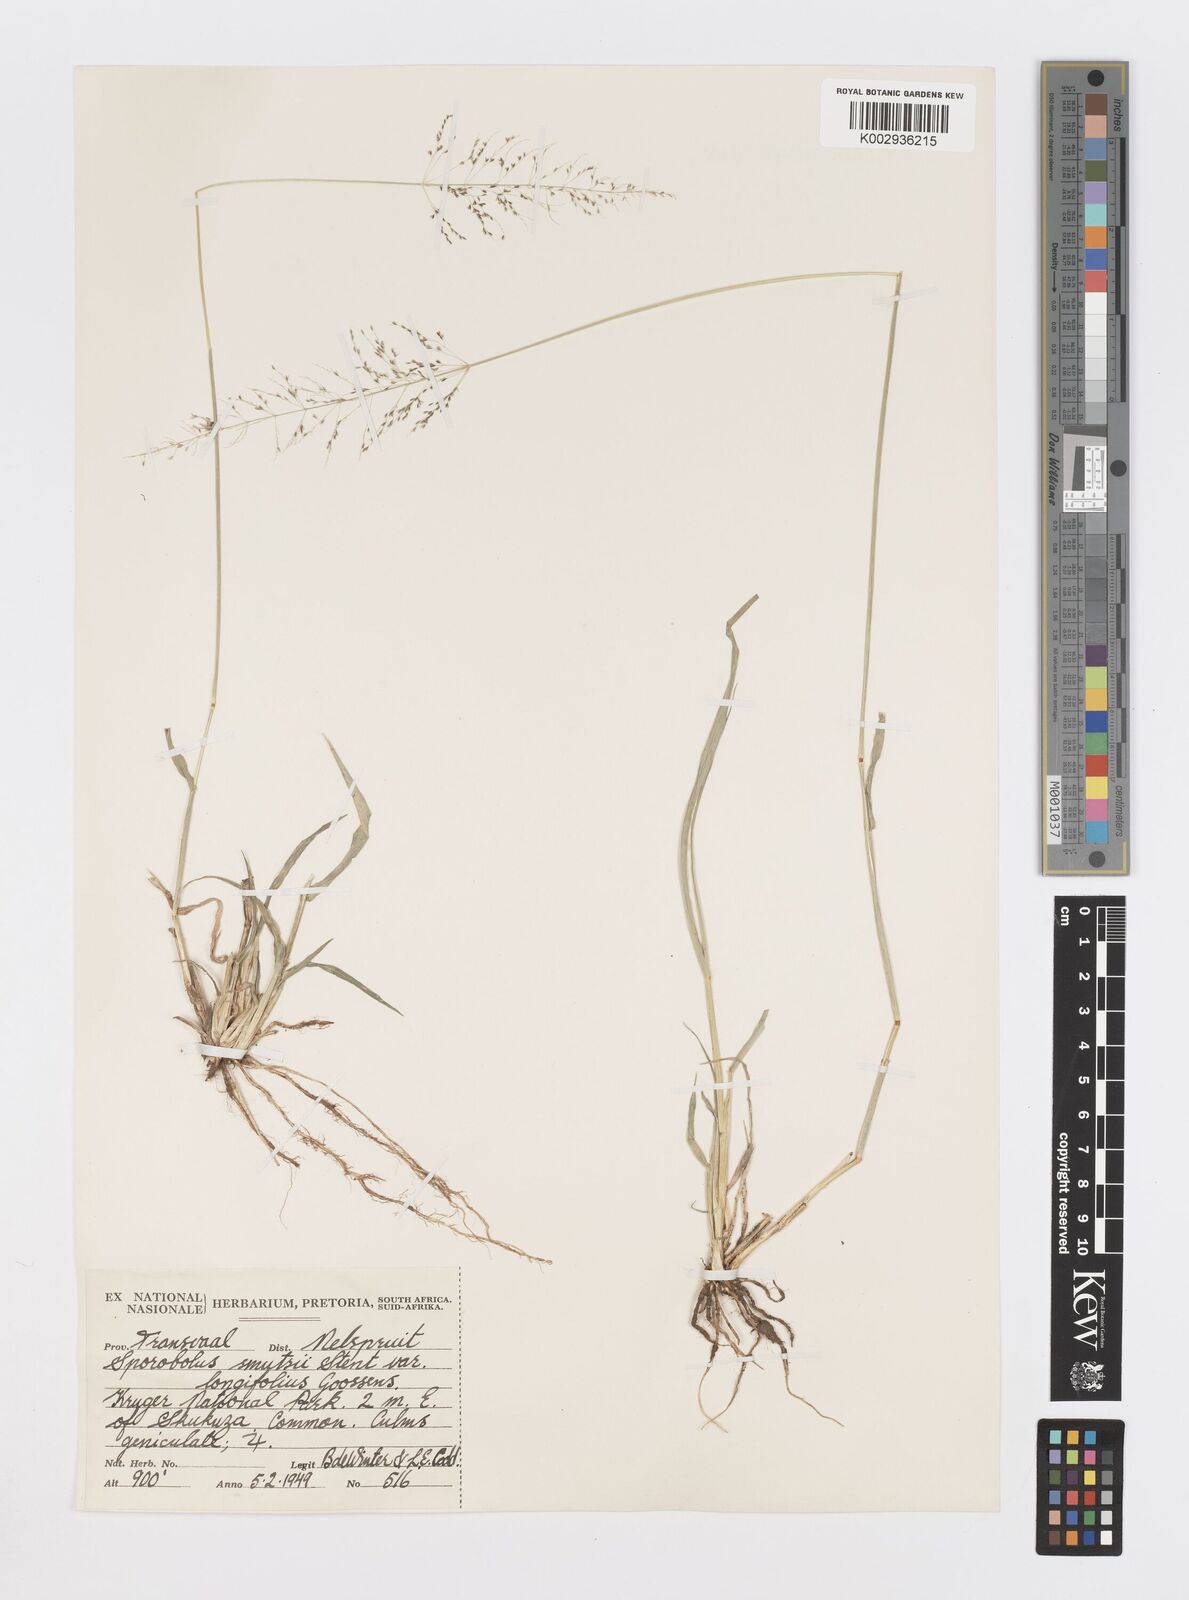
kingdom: Plantae
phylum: Tracheophyta
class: Liliopsida
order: Poales
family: Poaceae
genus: Sporobolus
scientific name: Sporobolus ioclados
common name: Pan dropseed
